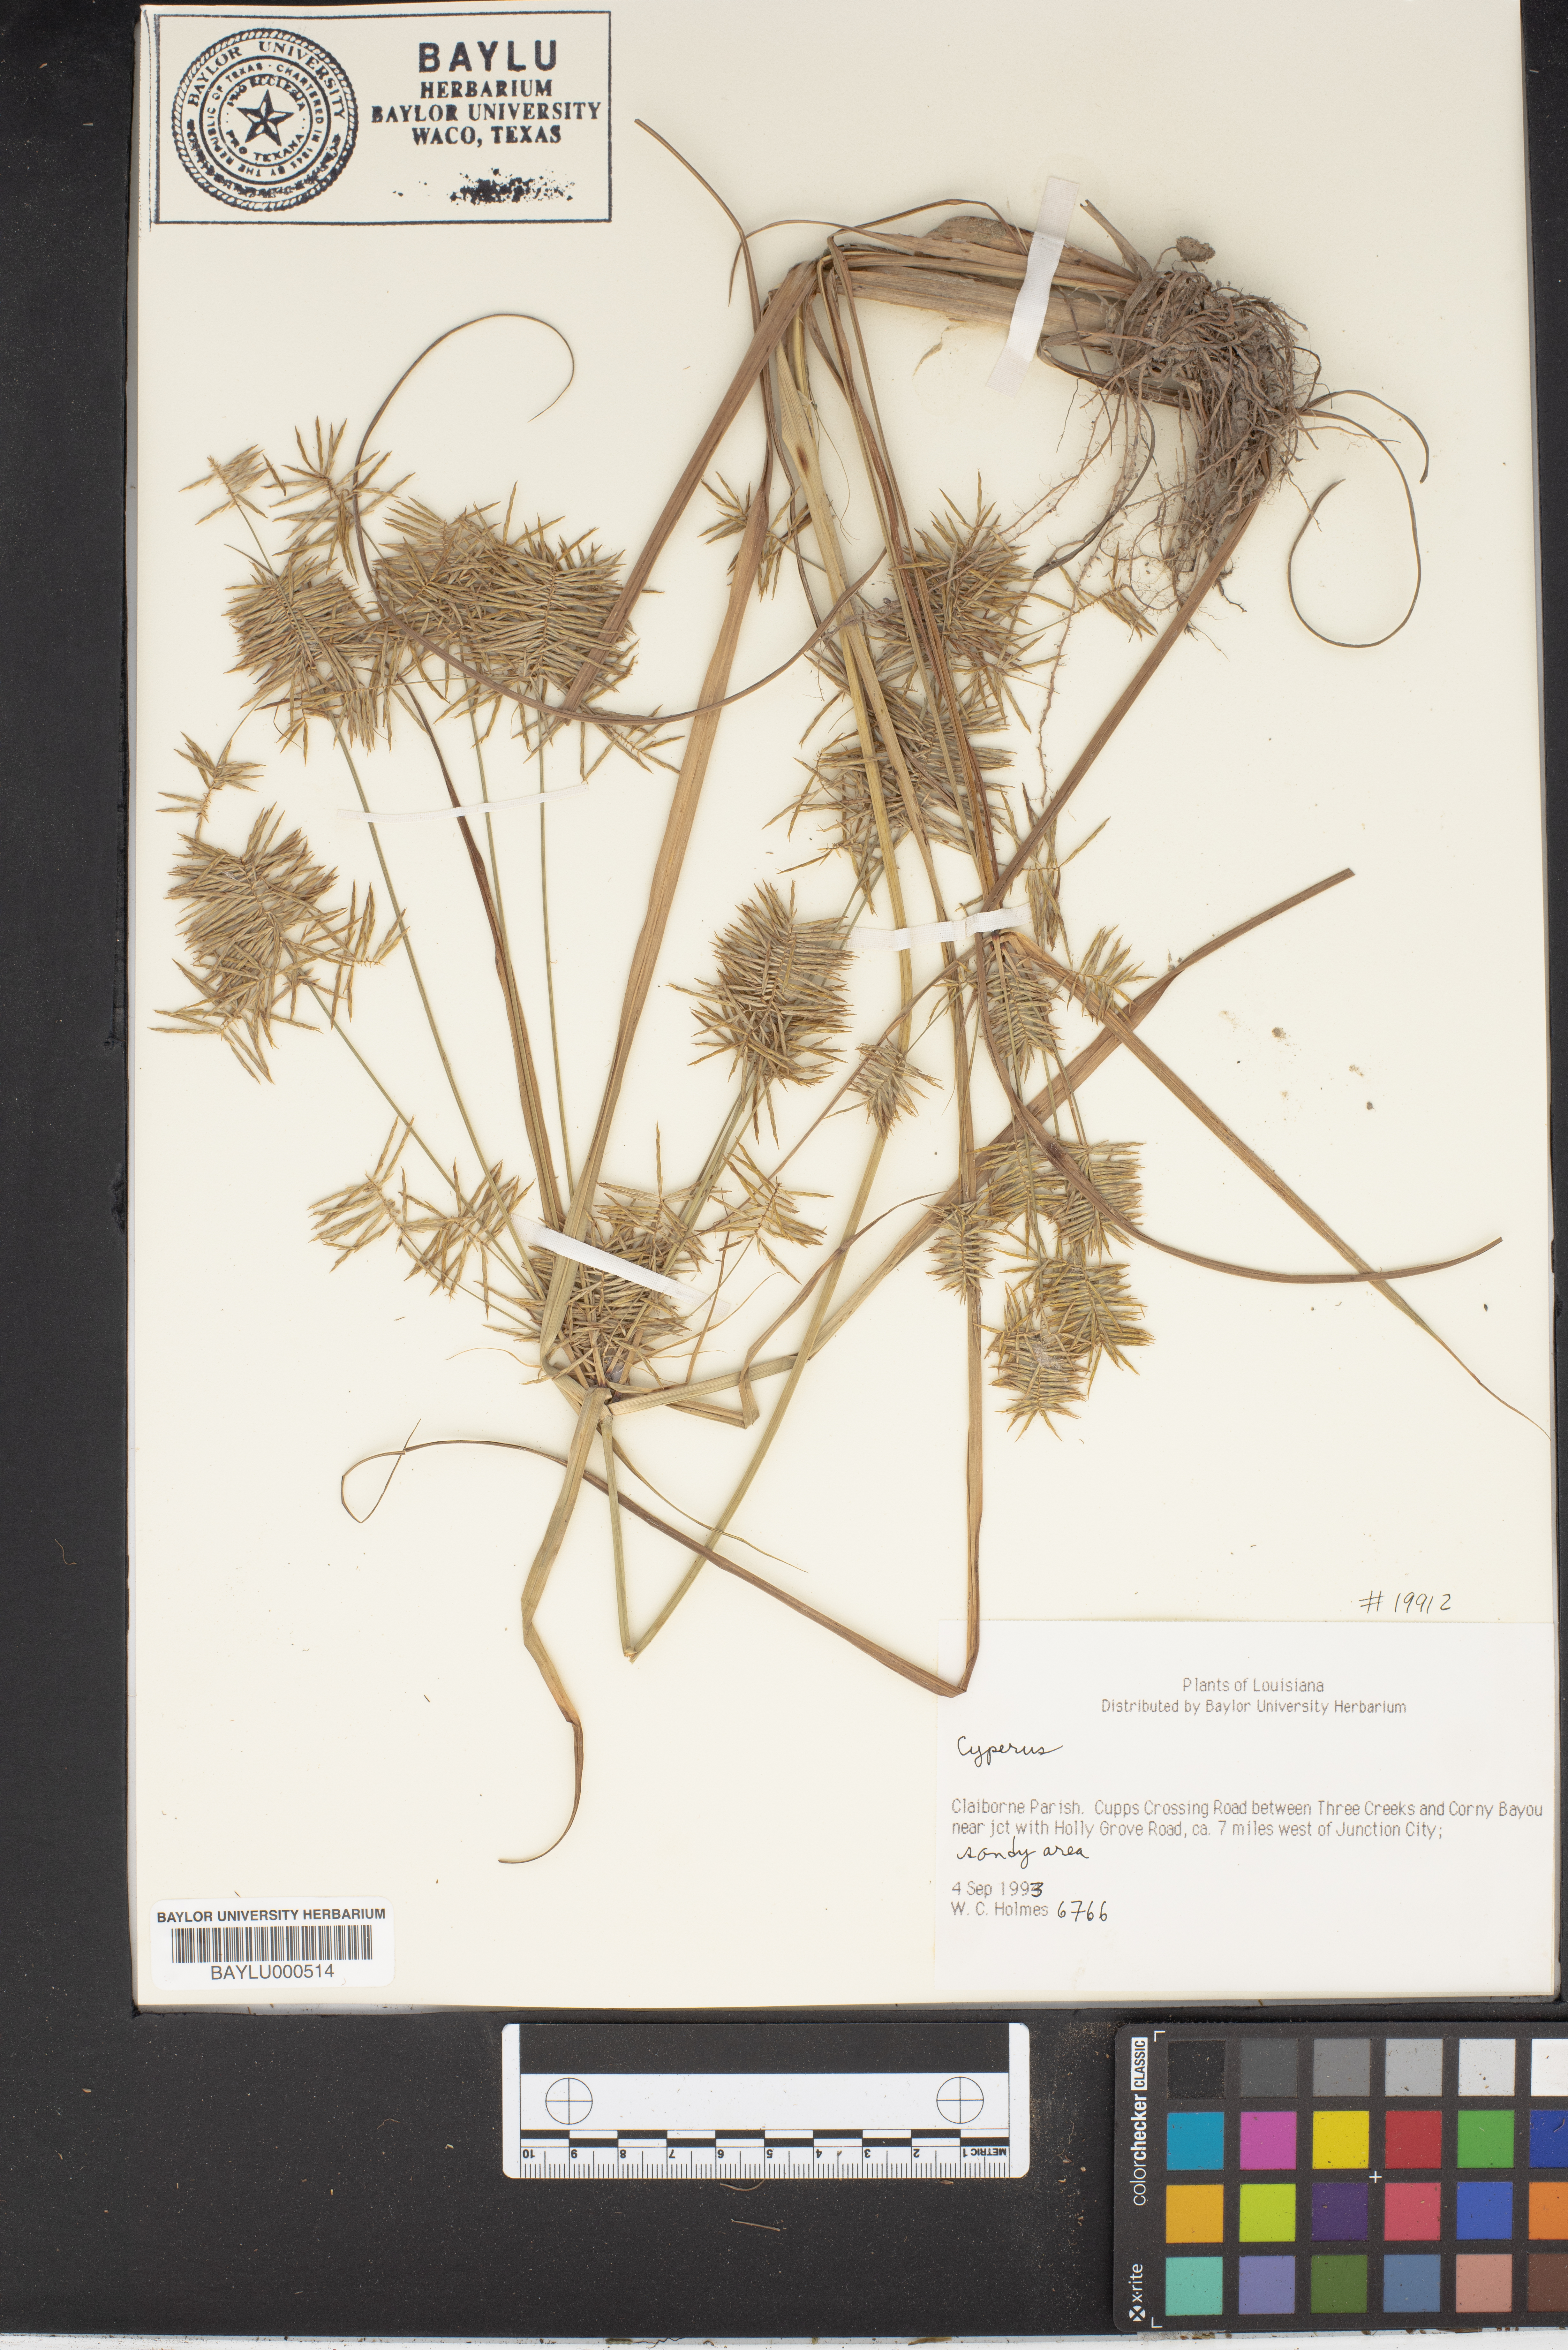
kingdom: Plantae
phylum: Tracheophyta
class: Liliopsida
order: Poales
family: Cyperaceae
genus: Cyperus
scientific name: Cyperus
